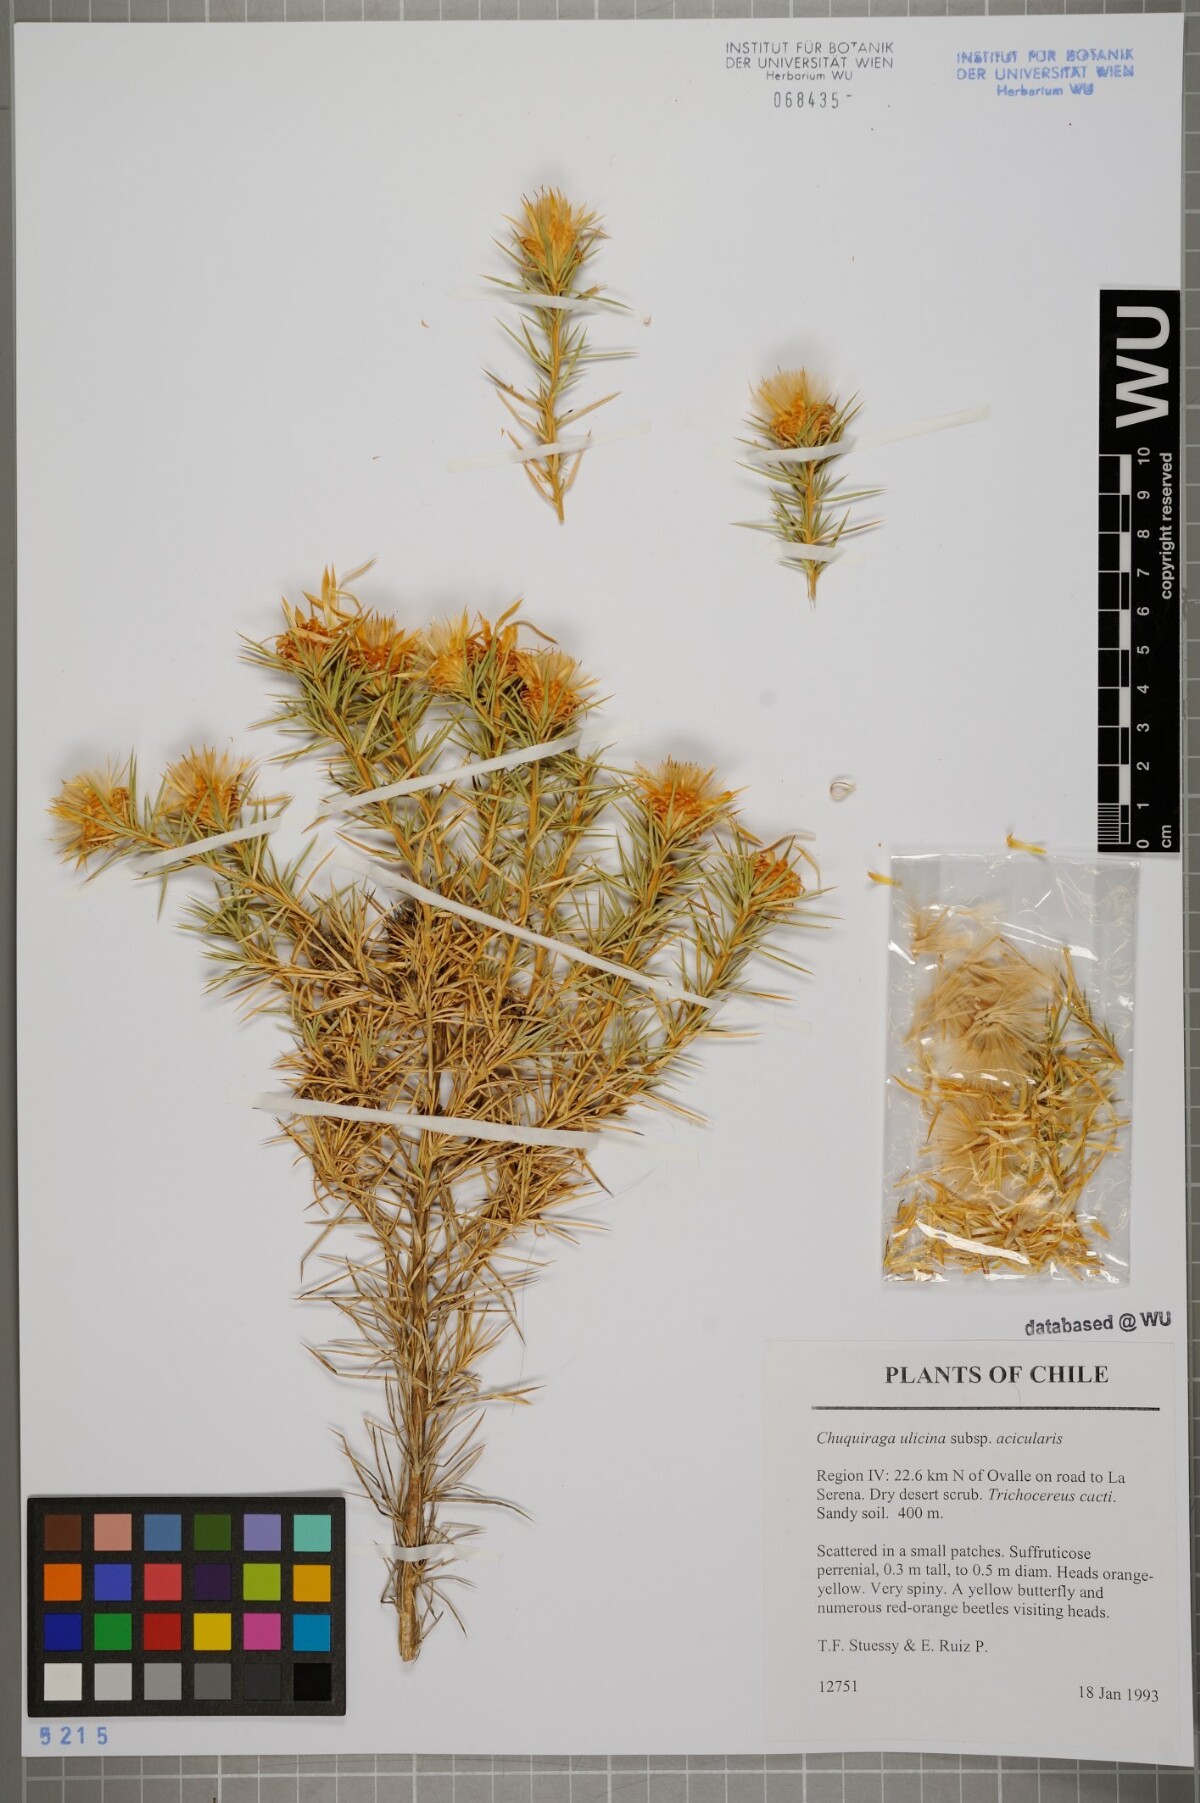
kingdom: Plantae
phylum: Tracheophyta
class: Magnoliopsida
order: Asterales
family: Asteraceae
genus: Chuquiraga
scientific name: Chuquiraga ulicina
